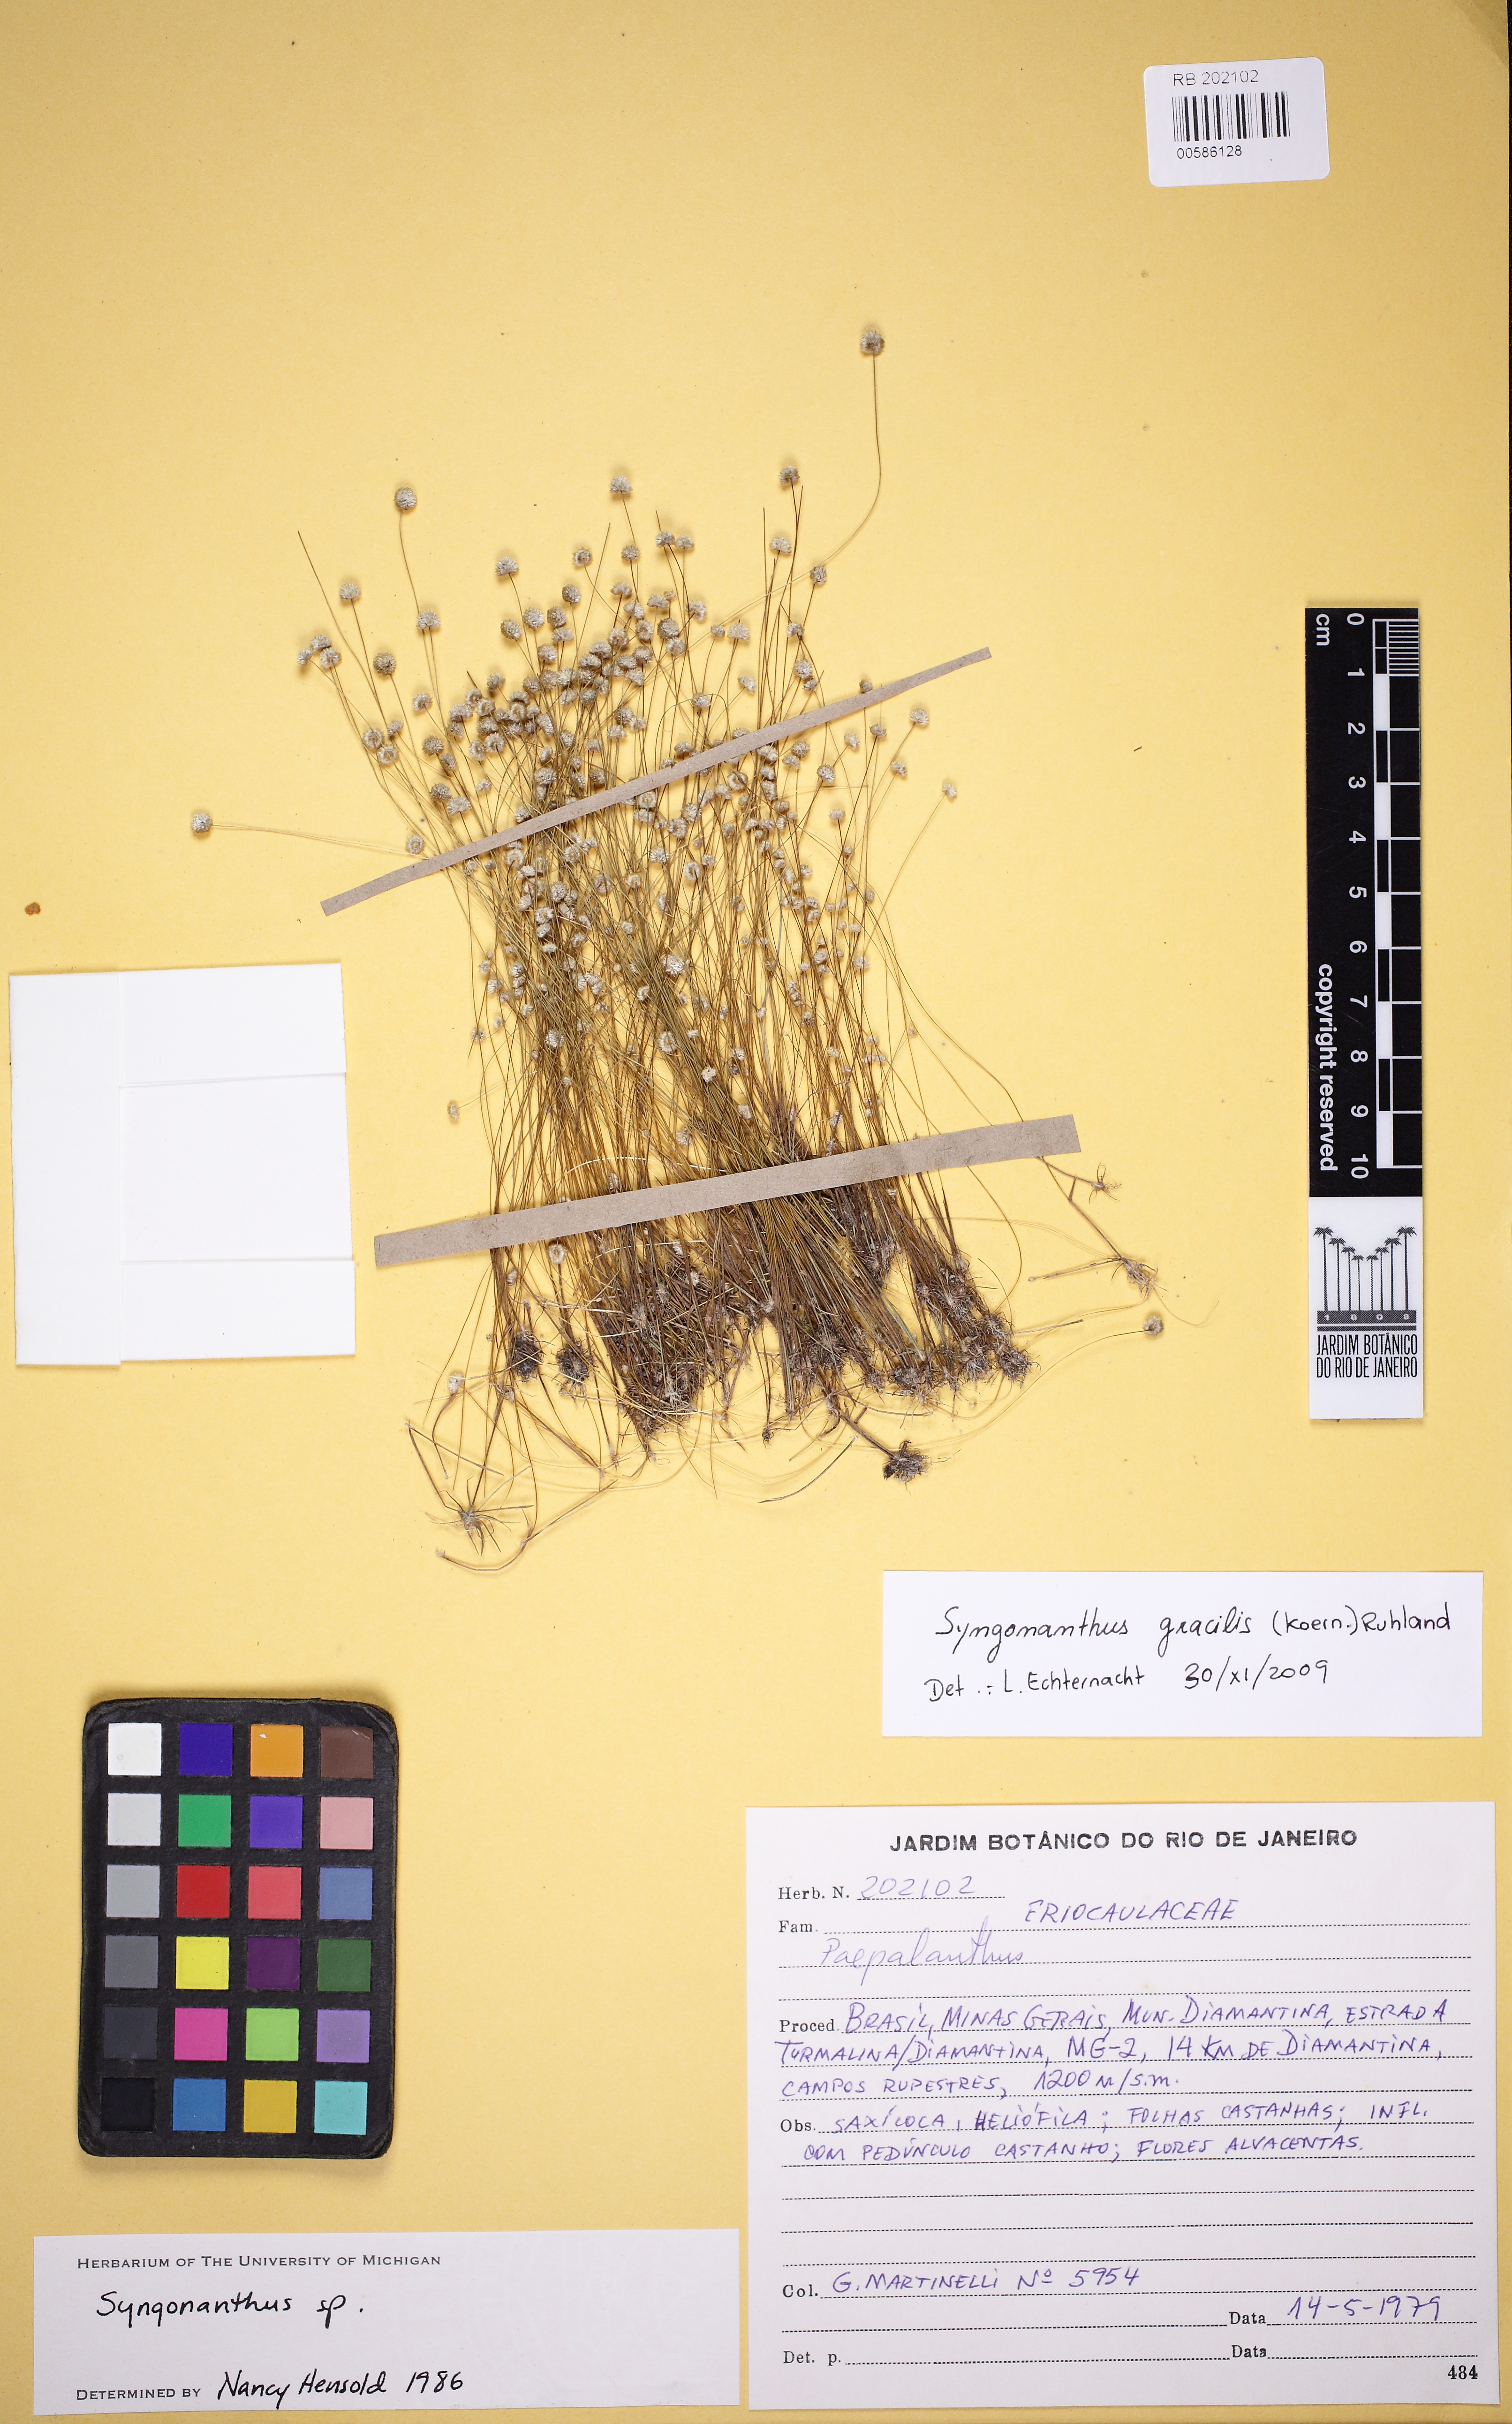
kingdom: Plantae
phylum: Tracheophyta
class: Liliopsida
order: Poales
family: Eriocaulaceae
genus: Syngonanthus
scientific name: Syngonanthus gracilis
